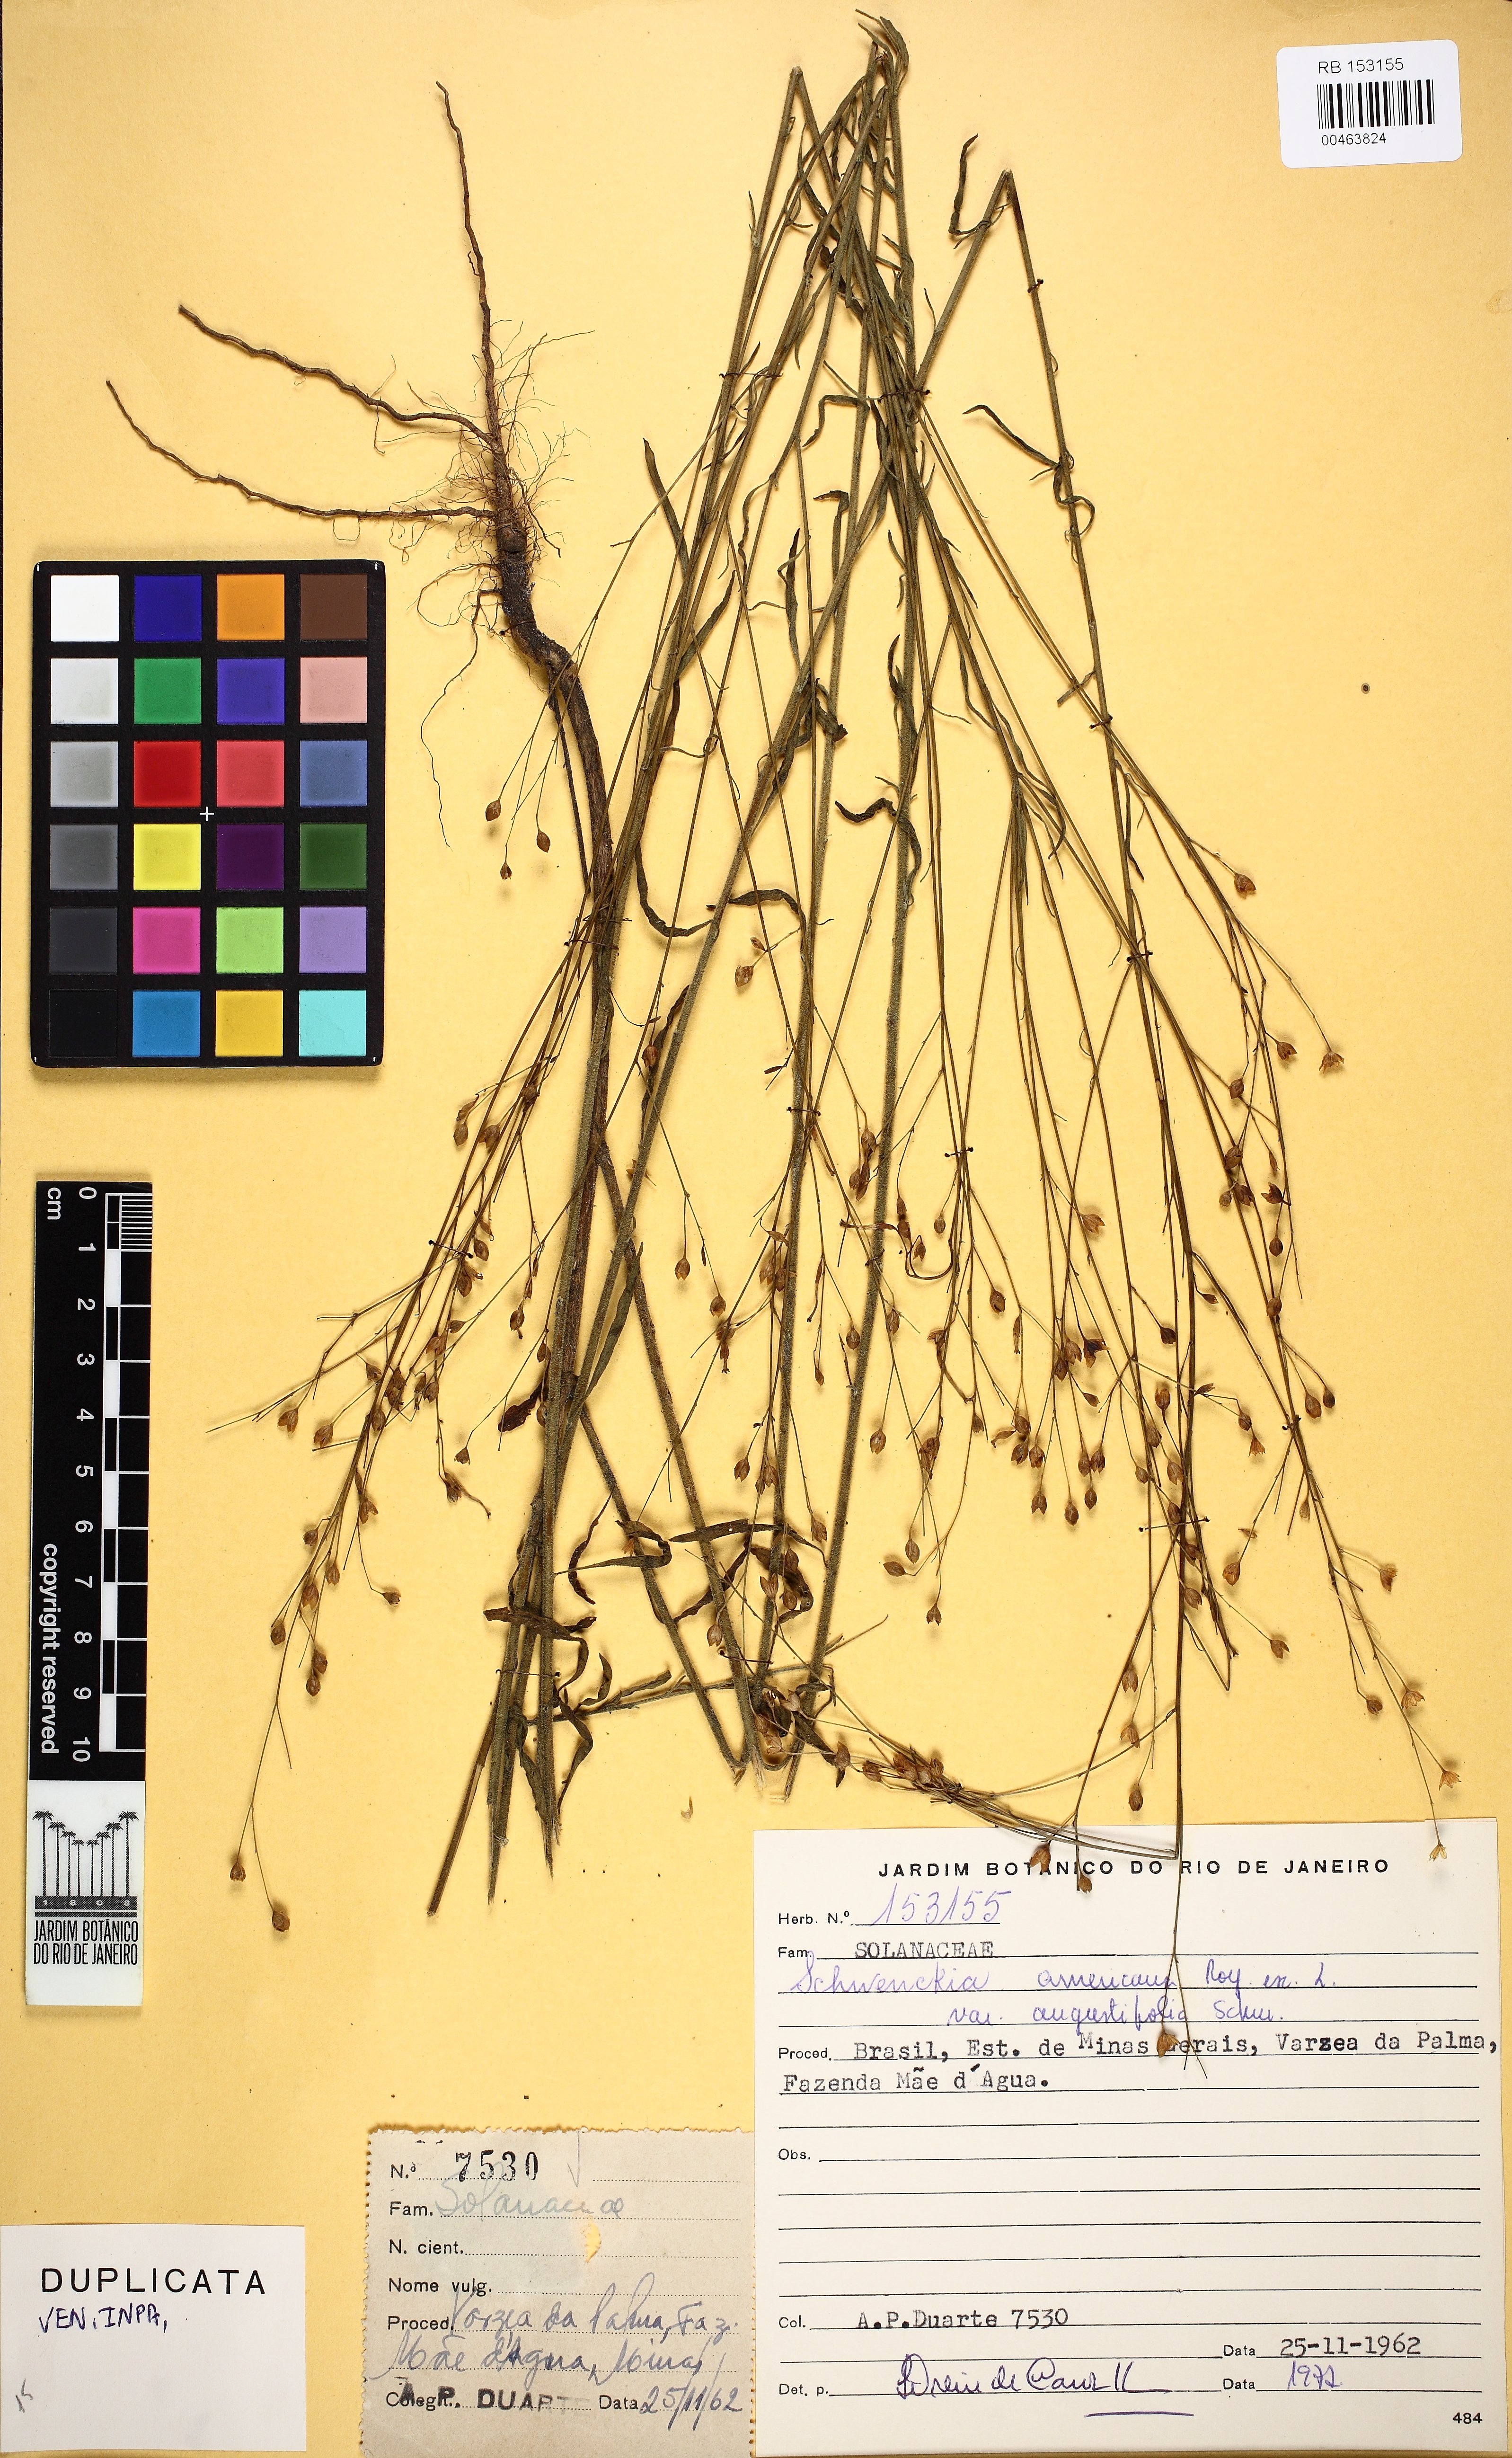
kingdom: Plantae
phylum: Tracheophyta
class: Magnoliopsida
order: Solanales
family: Solanaceae
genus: Schwenckia
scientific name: Schwenckia americana
